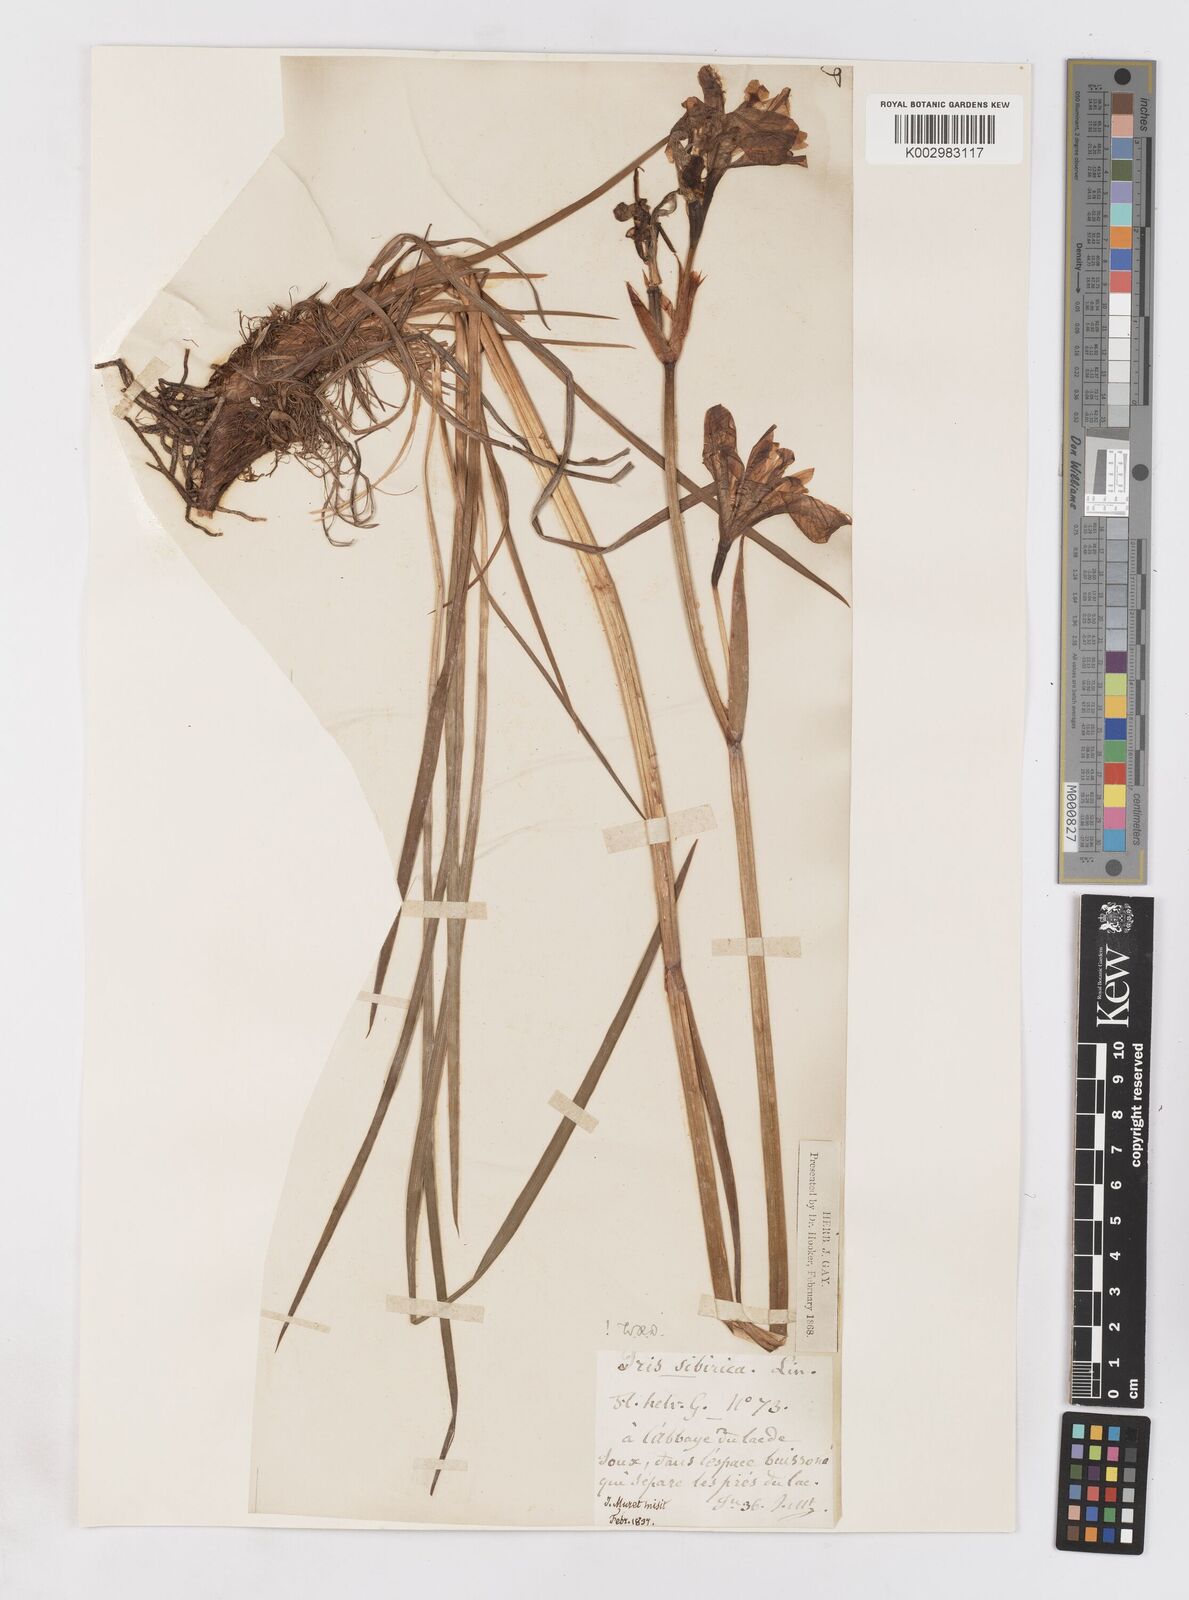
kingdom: Plantae
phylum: Tracheophyta
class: Liliopsida
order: Asparagales
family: Iridaceae
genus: Iris
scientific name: Iris sibirica
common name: Siberian iris
